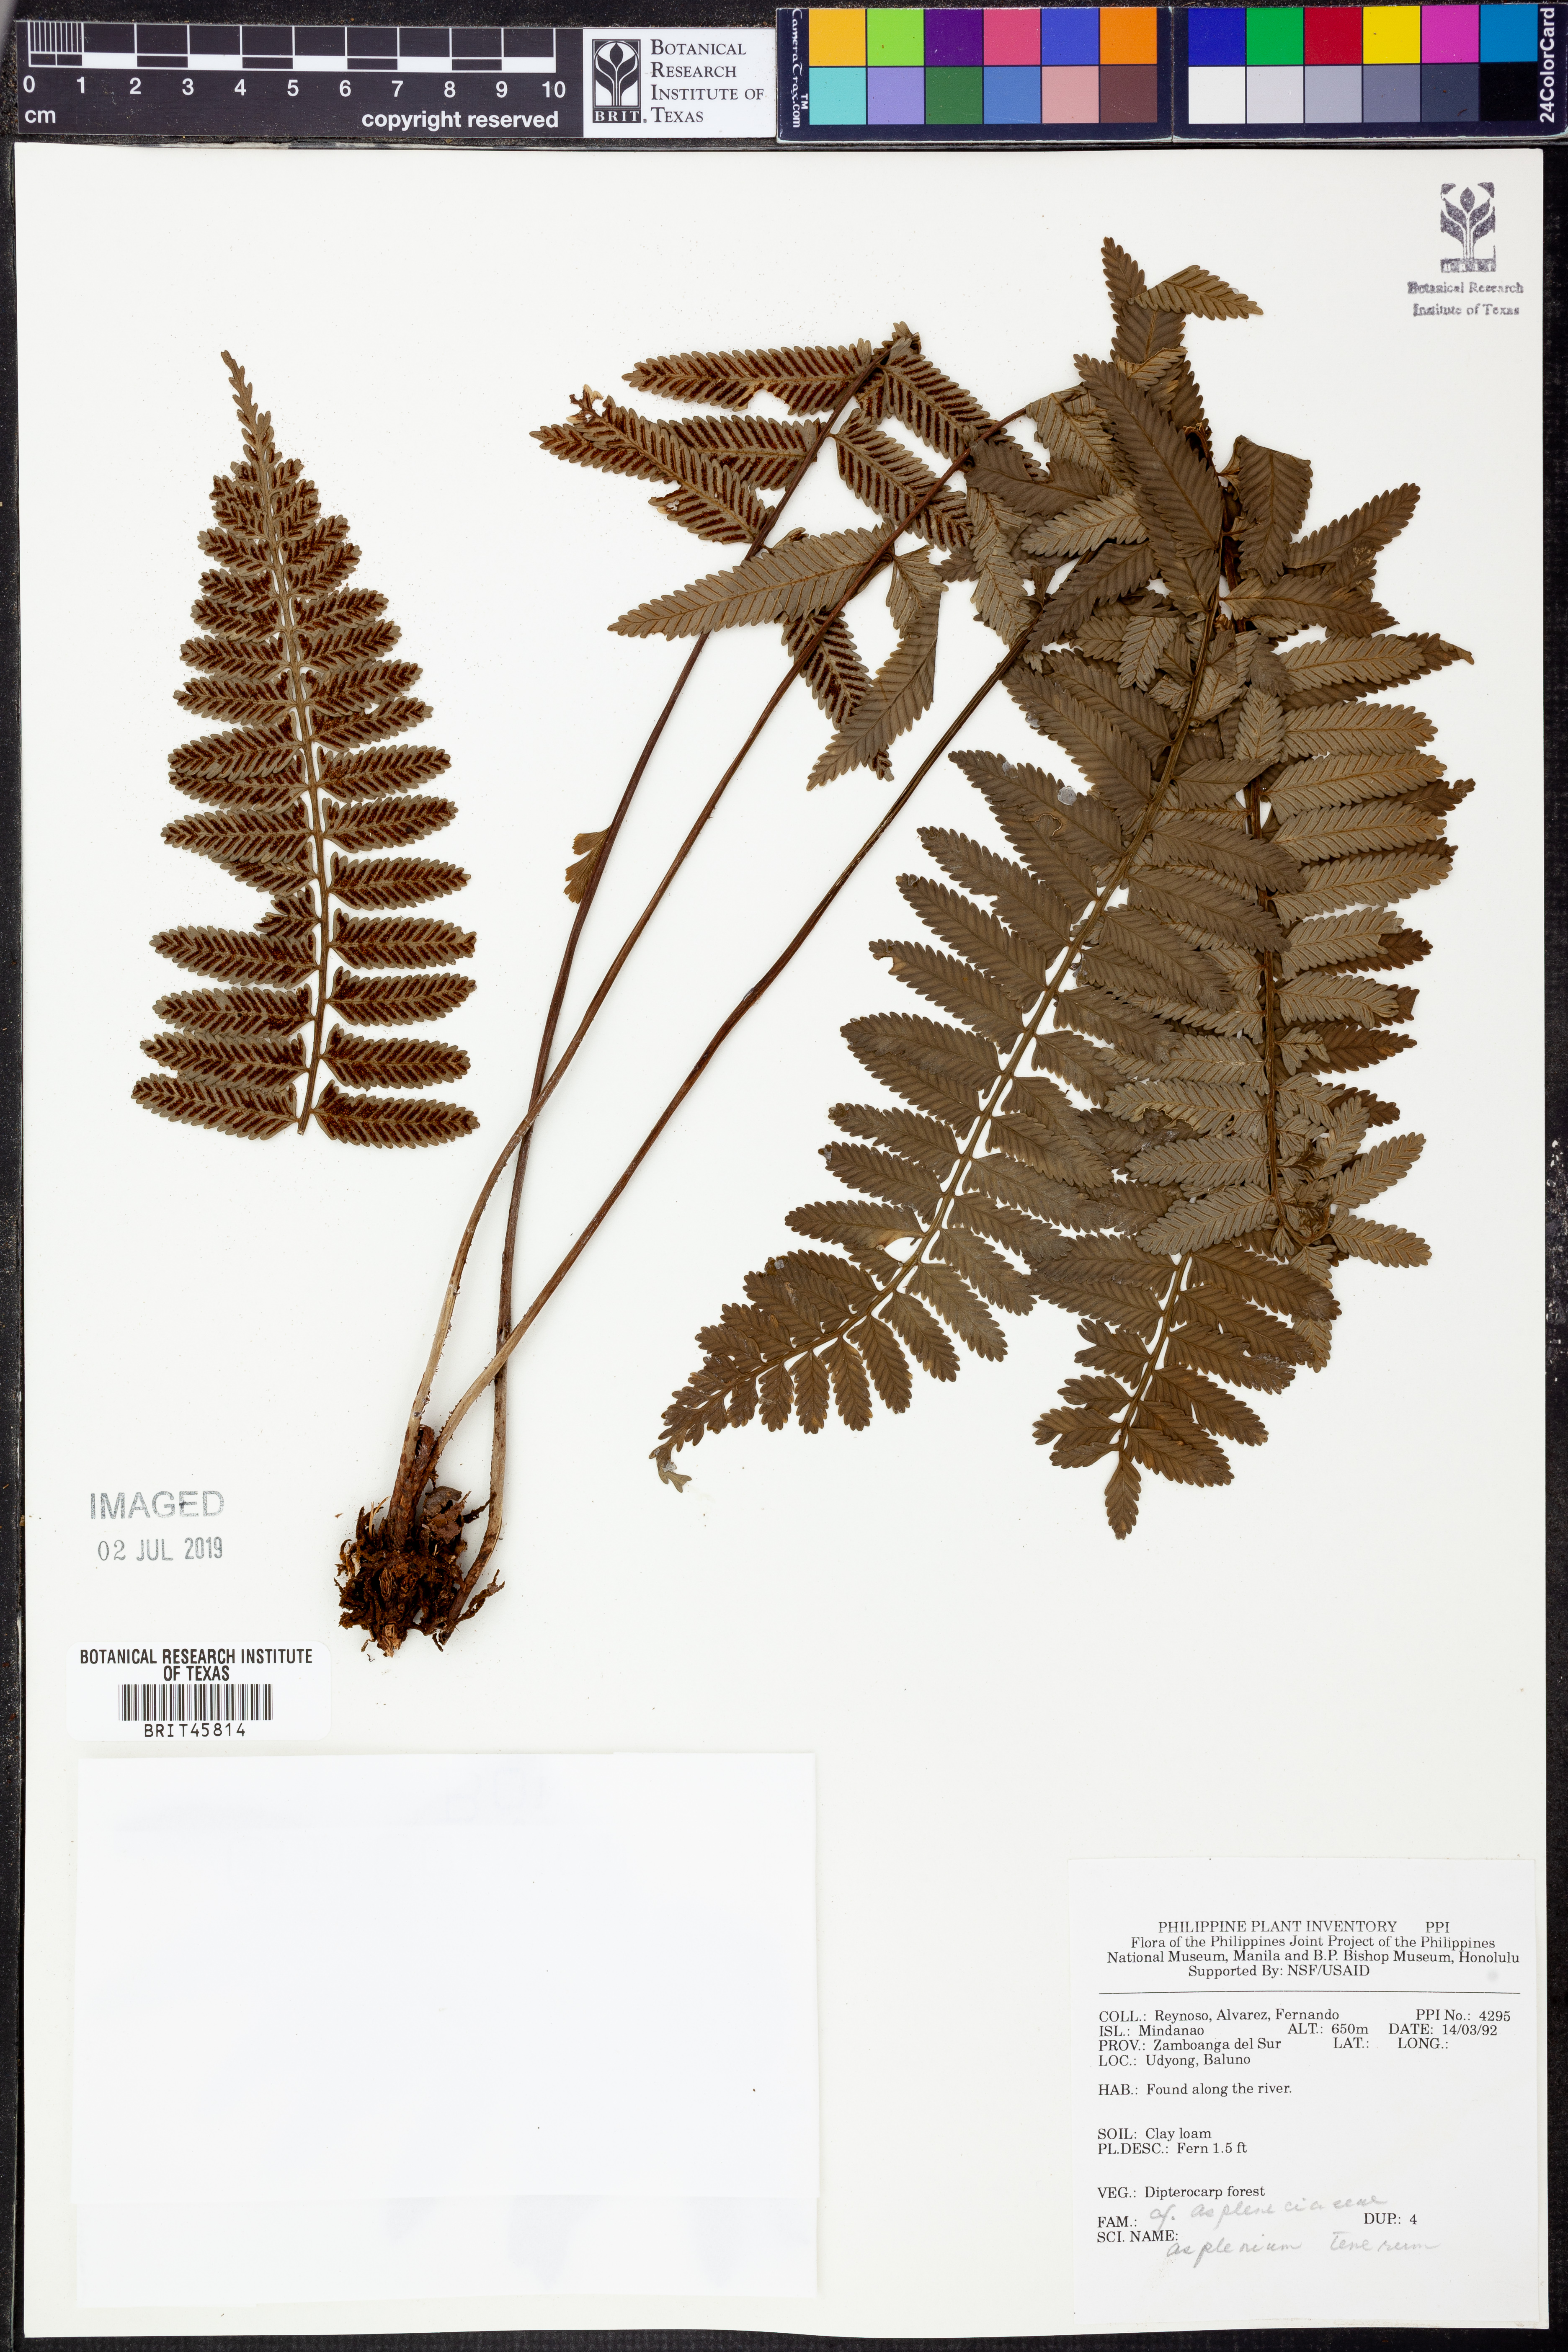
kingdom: Plantae
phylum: Tracheophyta
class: Polypodiopsida
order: Polypodiales
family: Aspleniaceae
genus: Asplenium
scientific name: Asplenium auriculatum
